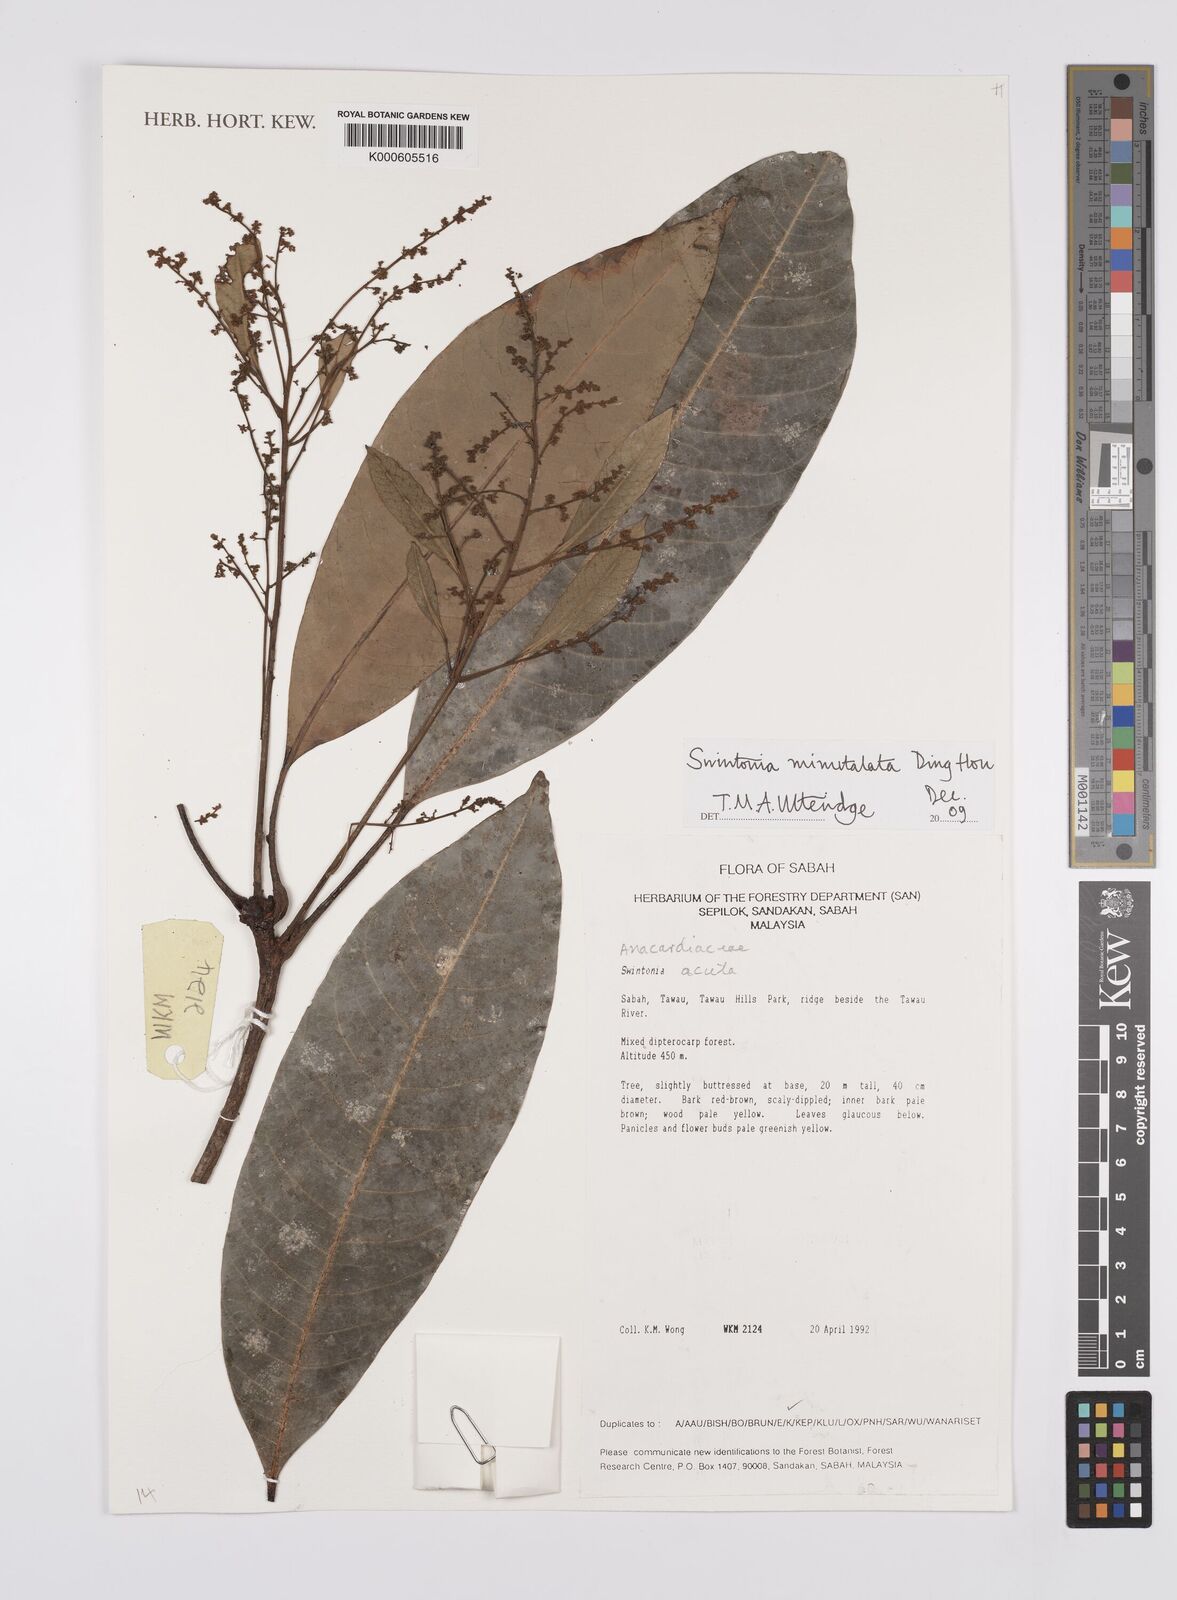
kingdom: Plantae
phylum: Tracheophyta
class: Magnoliopsida
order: Sapindales
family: Anacardiaceae
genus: Swintonia
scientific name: Swintonia minutalata
